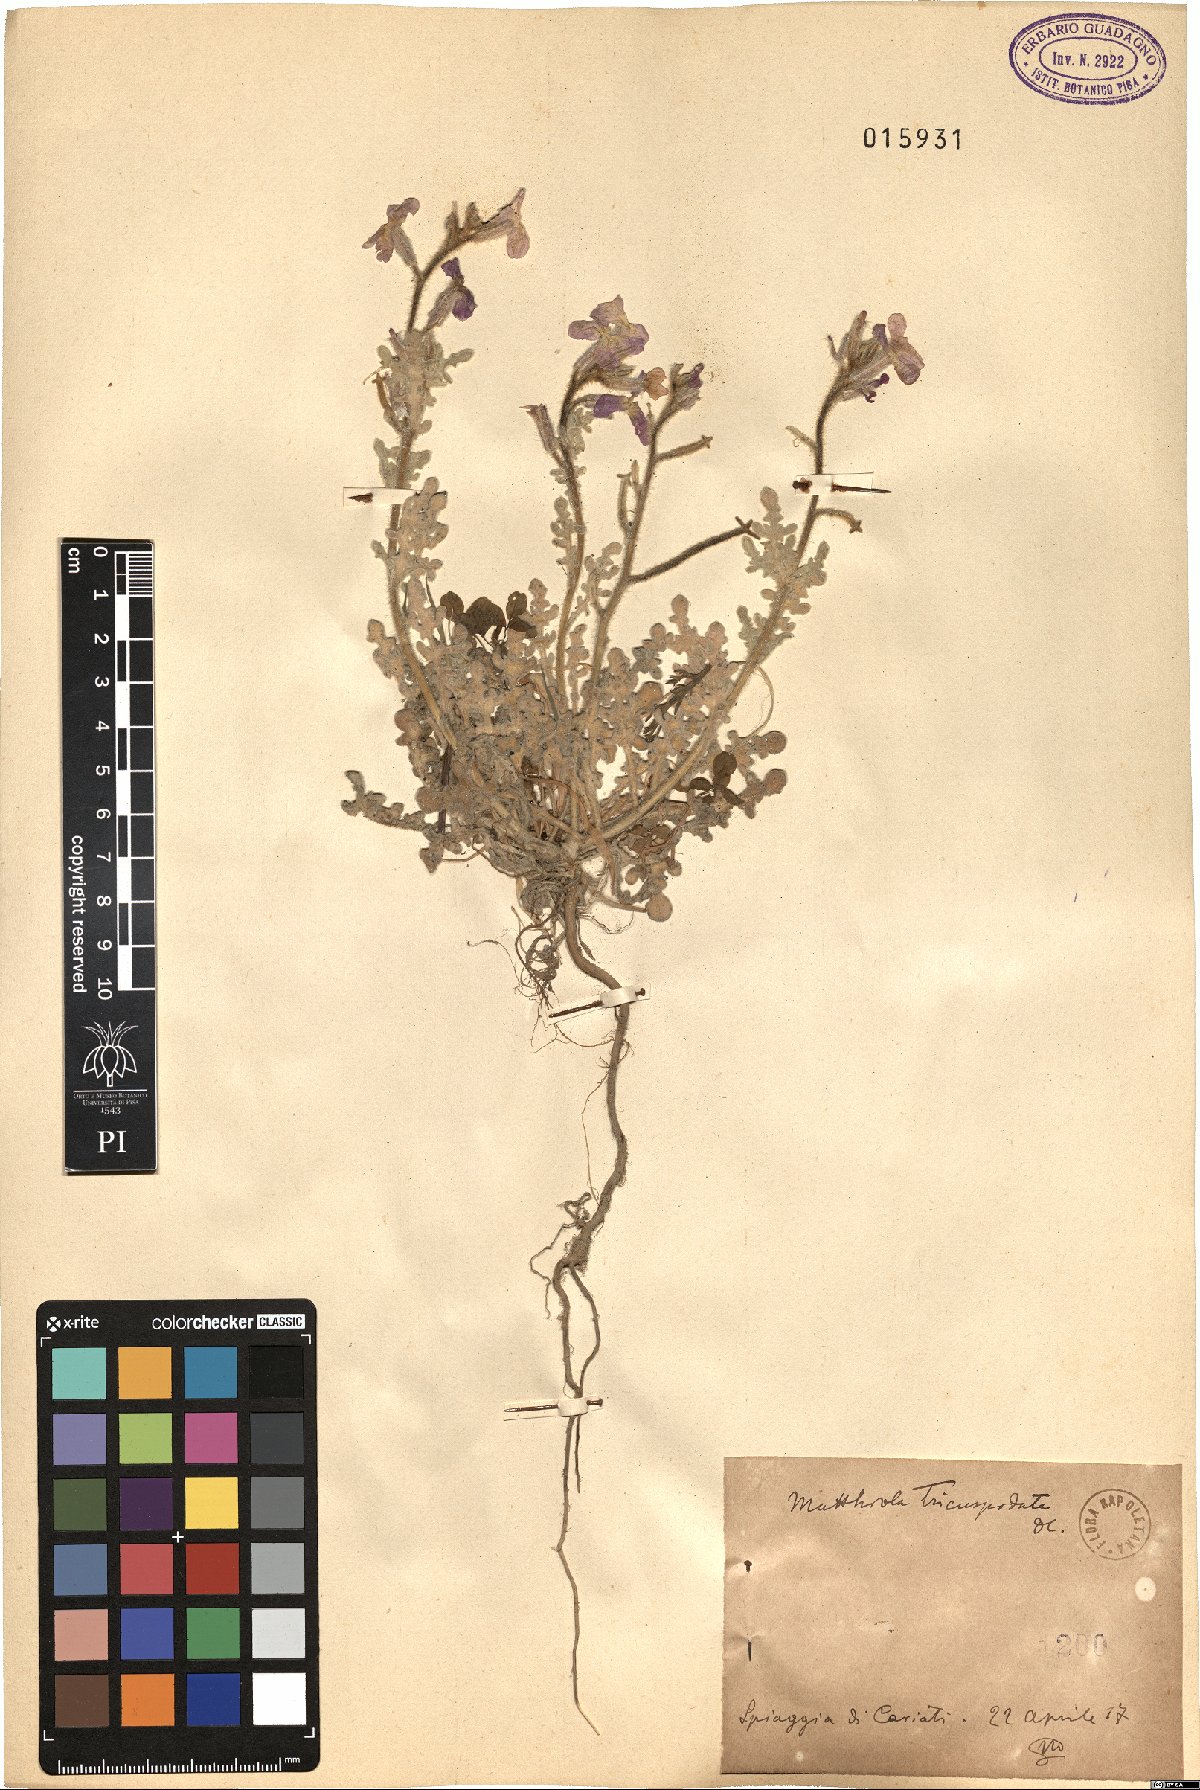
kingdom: Plantae
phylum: Tracheophyta
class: Magnoliopsida
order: Brassicales
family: Brassicaceae
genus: Matthiola
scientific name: Matthiola tricuspidata
